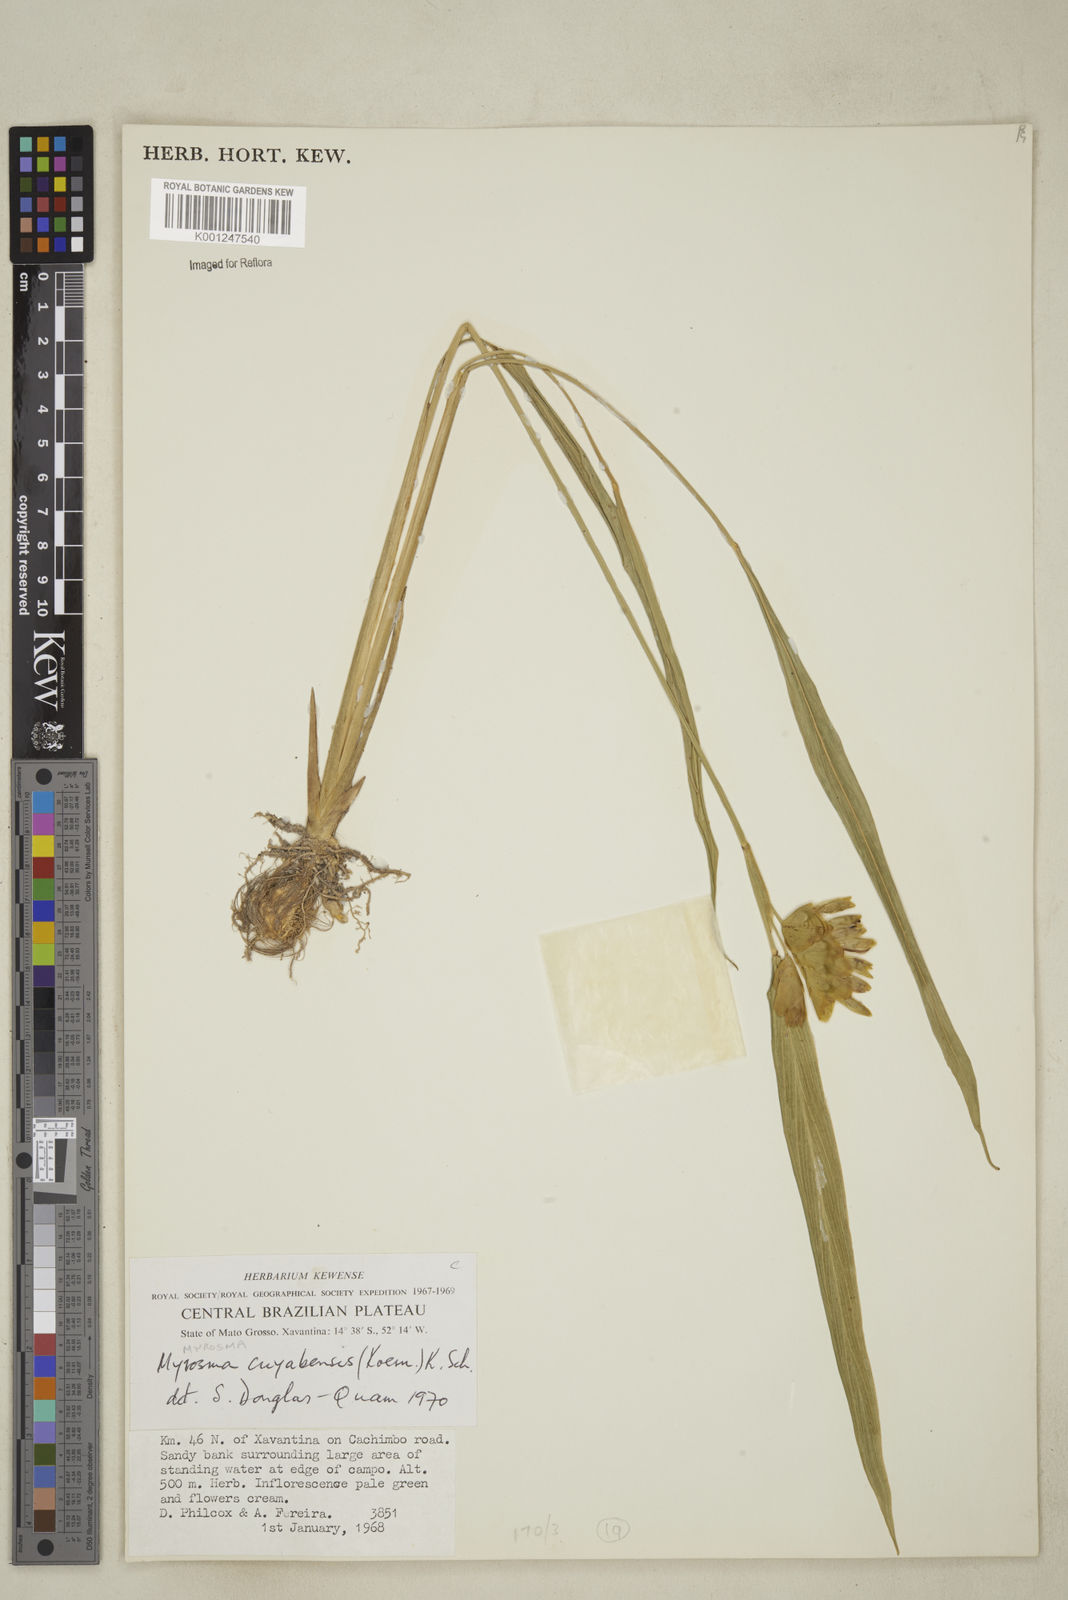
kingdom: Plantae
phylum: Tracheophyta
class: Liliopsida
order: Zingiberales
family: Marantaceae
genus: Myrosma
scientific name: Myrosma cannifolia
